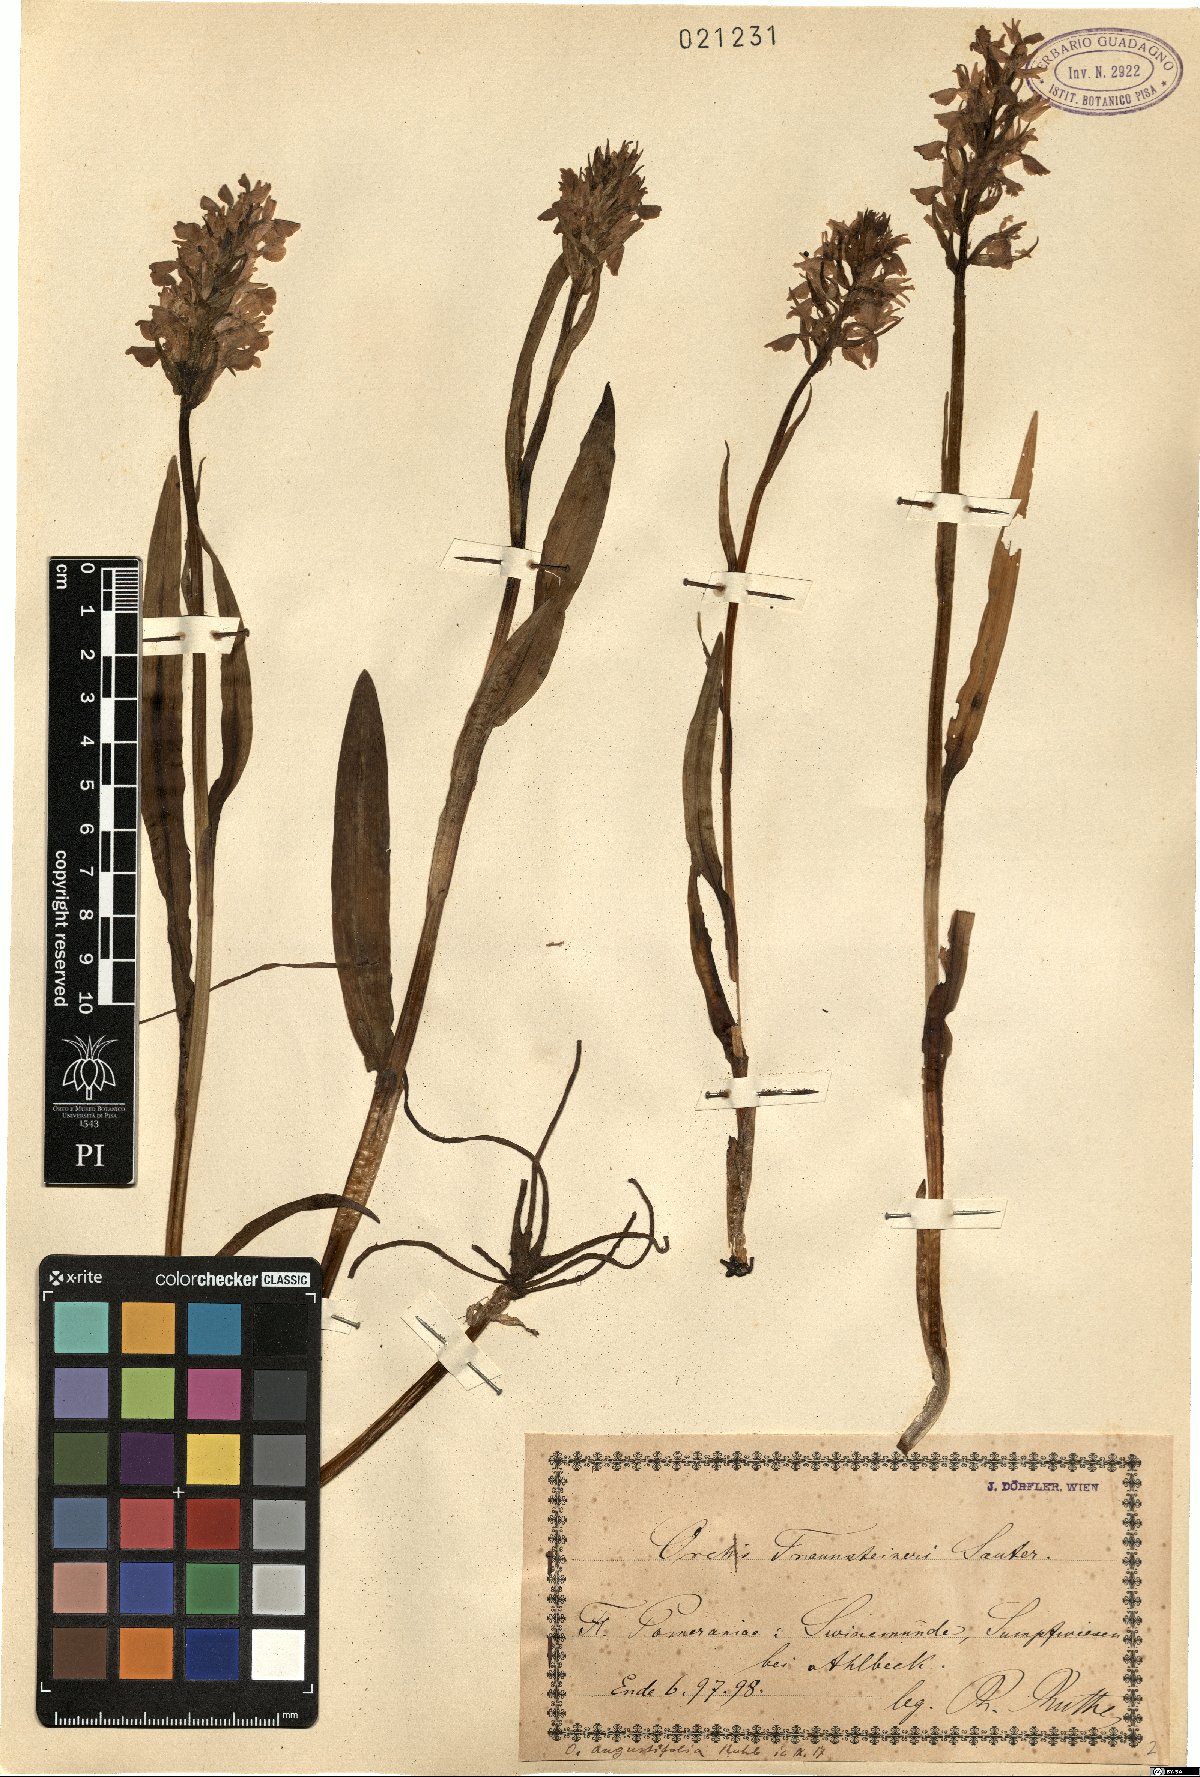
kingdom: Plantae
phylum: Tracheophyta
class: Liliopsida
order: Asparagales
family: Orchidaceae
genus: Dactylorhiza
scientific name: Dactylorhiza majalis
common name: Marsh orchid
